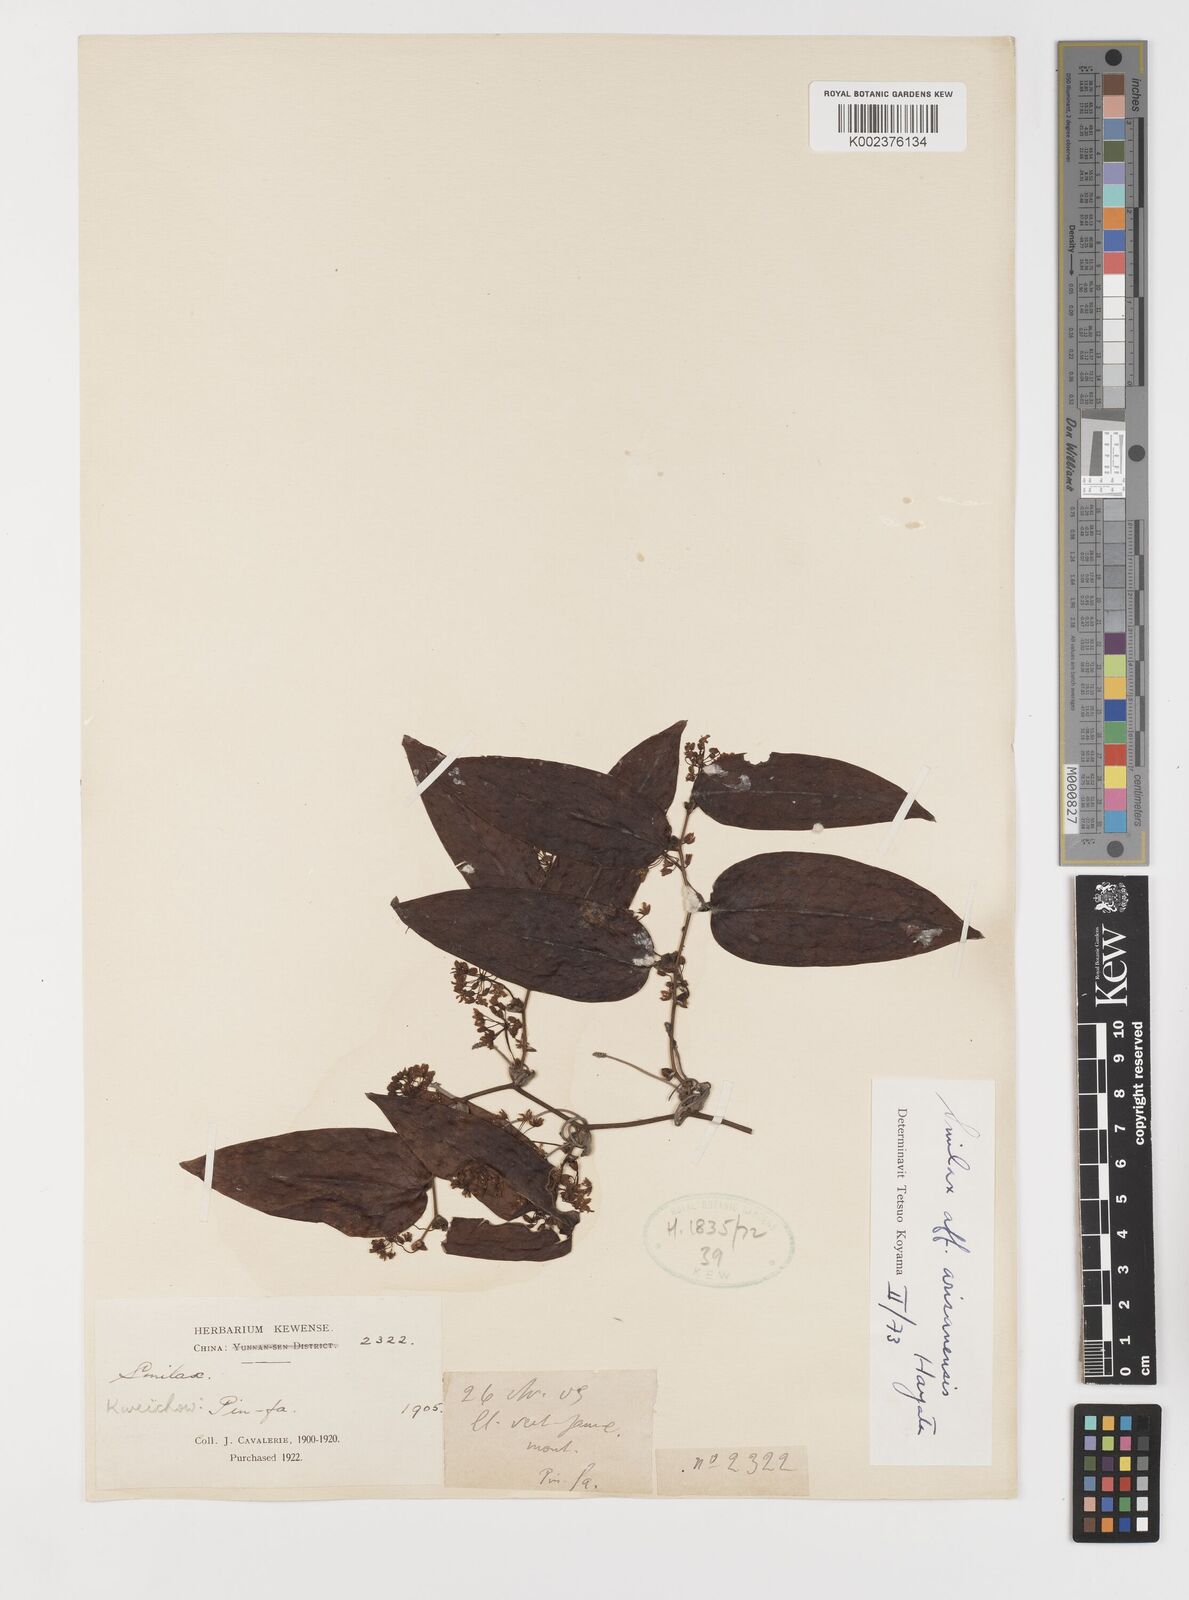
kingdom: Plantae
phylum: Tracheophyta
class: Liliopsida
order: Liliales
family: Smilacaceae
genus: Smilax
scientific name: Smilax arisanensis
